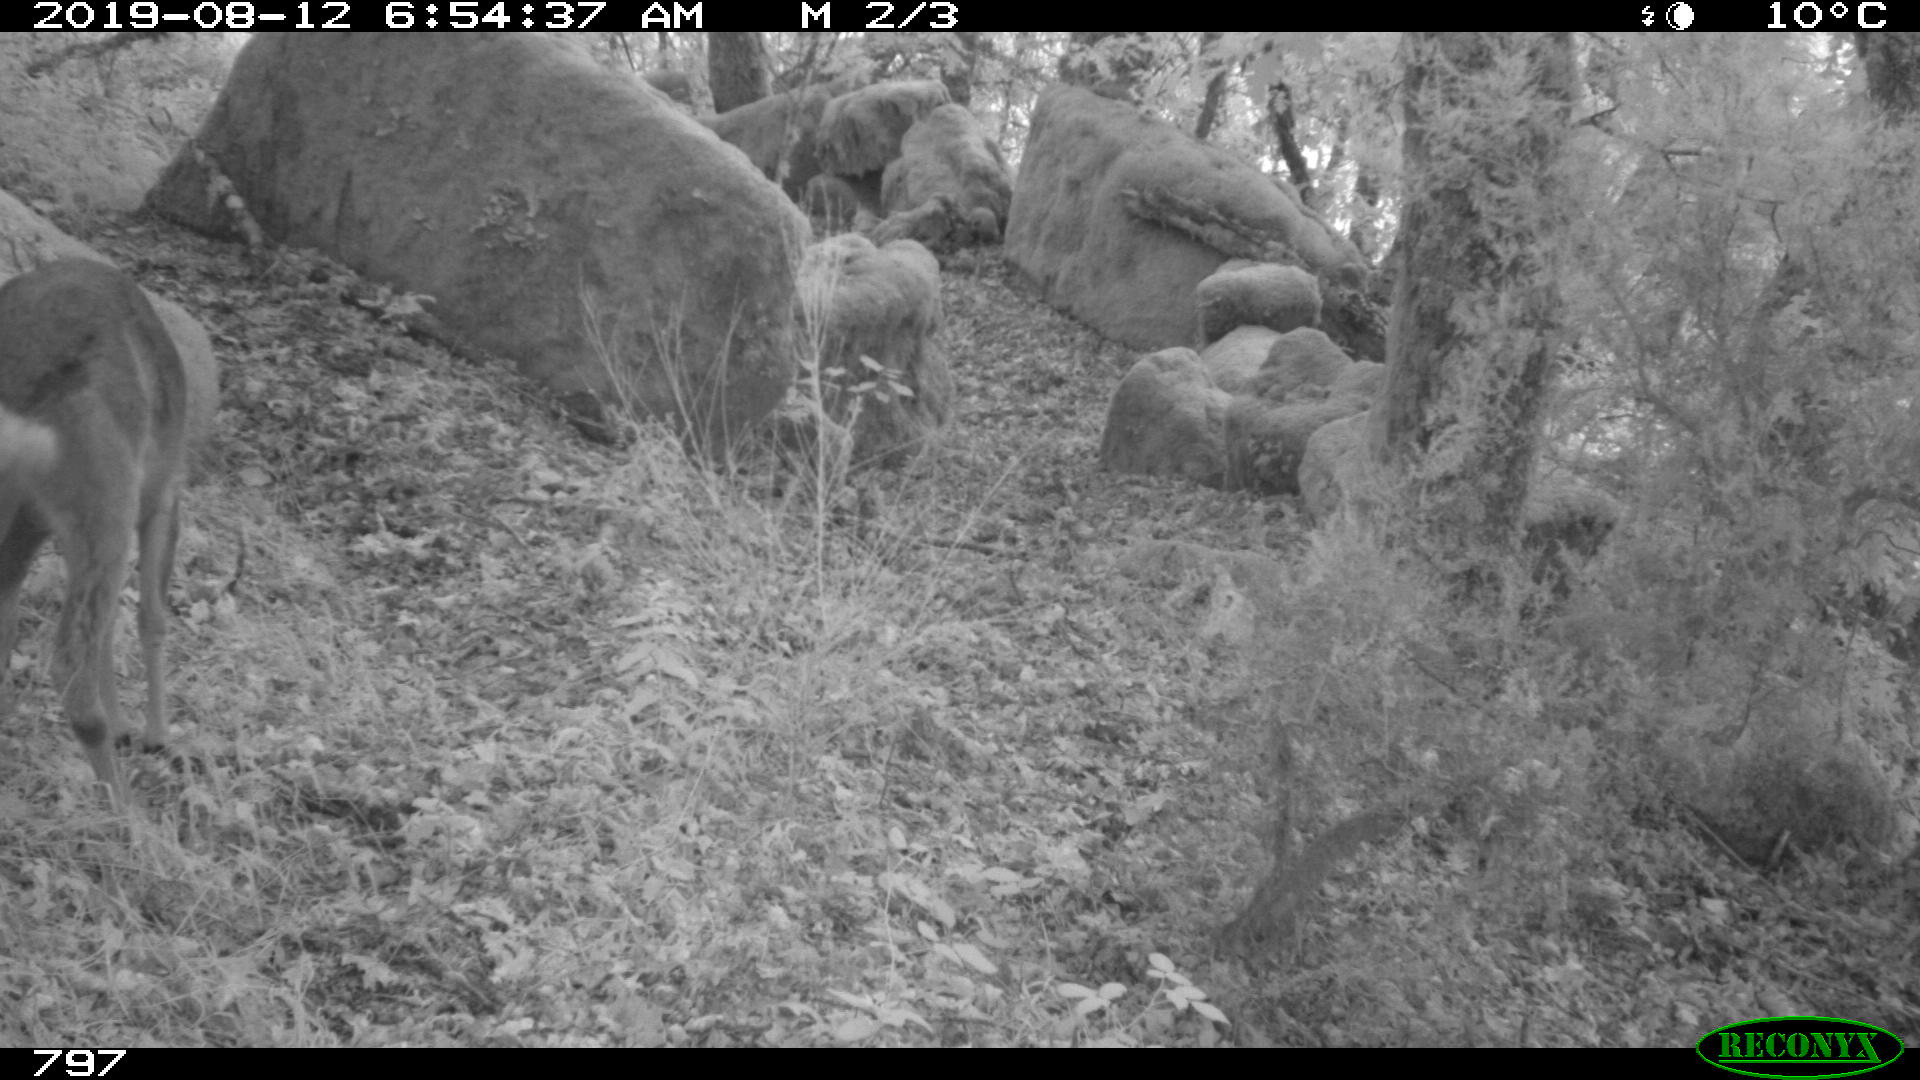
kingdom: Animalia
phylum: Chordata
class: Mammalia
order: Artiodactyla
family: Cervidae
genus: Capreolus
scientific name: Capreolus capreolus
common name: Western roe deer
